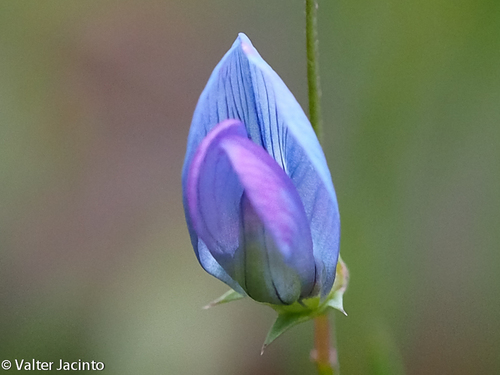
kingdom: Plantae
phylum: Tracheophyta
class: Magnoliopsida
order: Fabales
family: Fabaceae
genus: Lathyrus
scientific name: Lathyrus angulatus
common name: Angular pea
